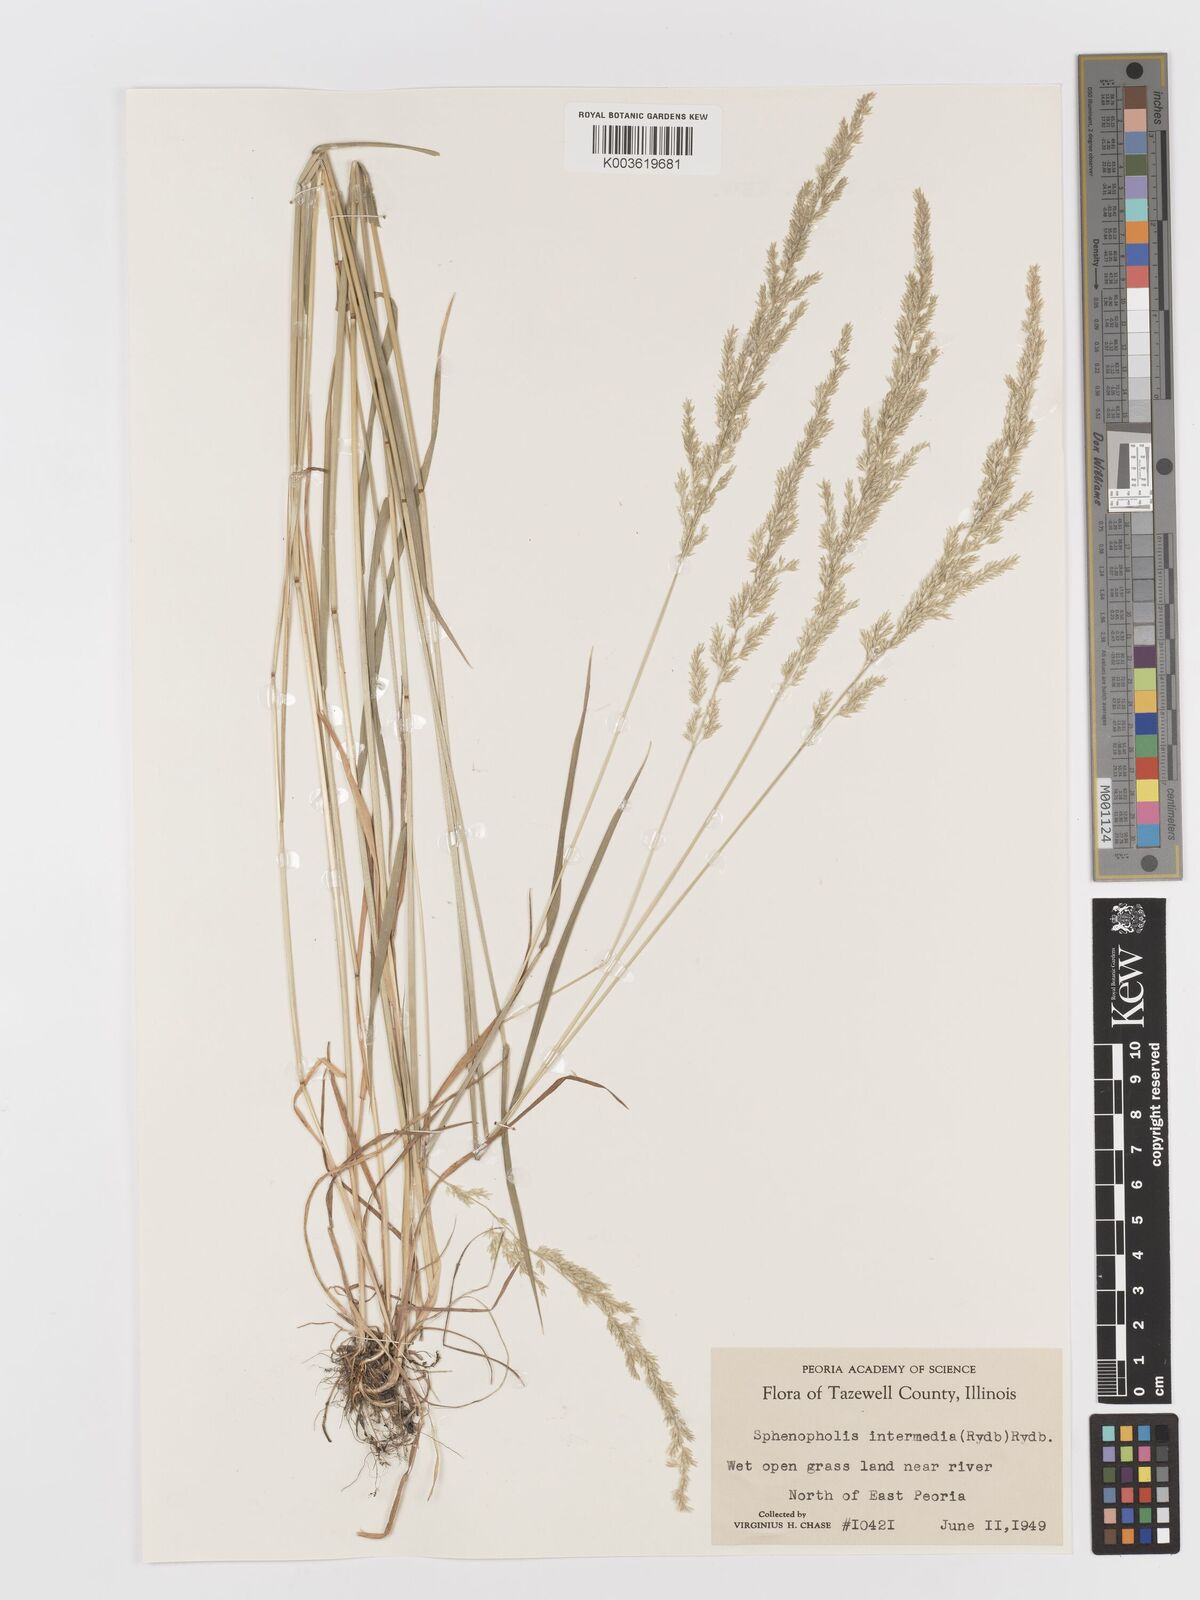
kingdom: Plantae
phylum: Tracheophyta
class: Liliopsida
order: Poales
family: Poaceae
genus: Sphenopholis
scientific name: Sphenopholis obtusata
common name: Prairie grass
